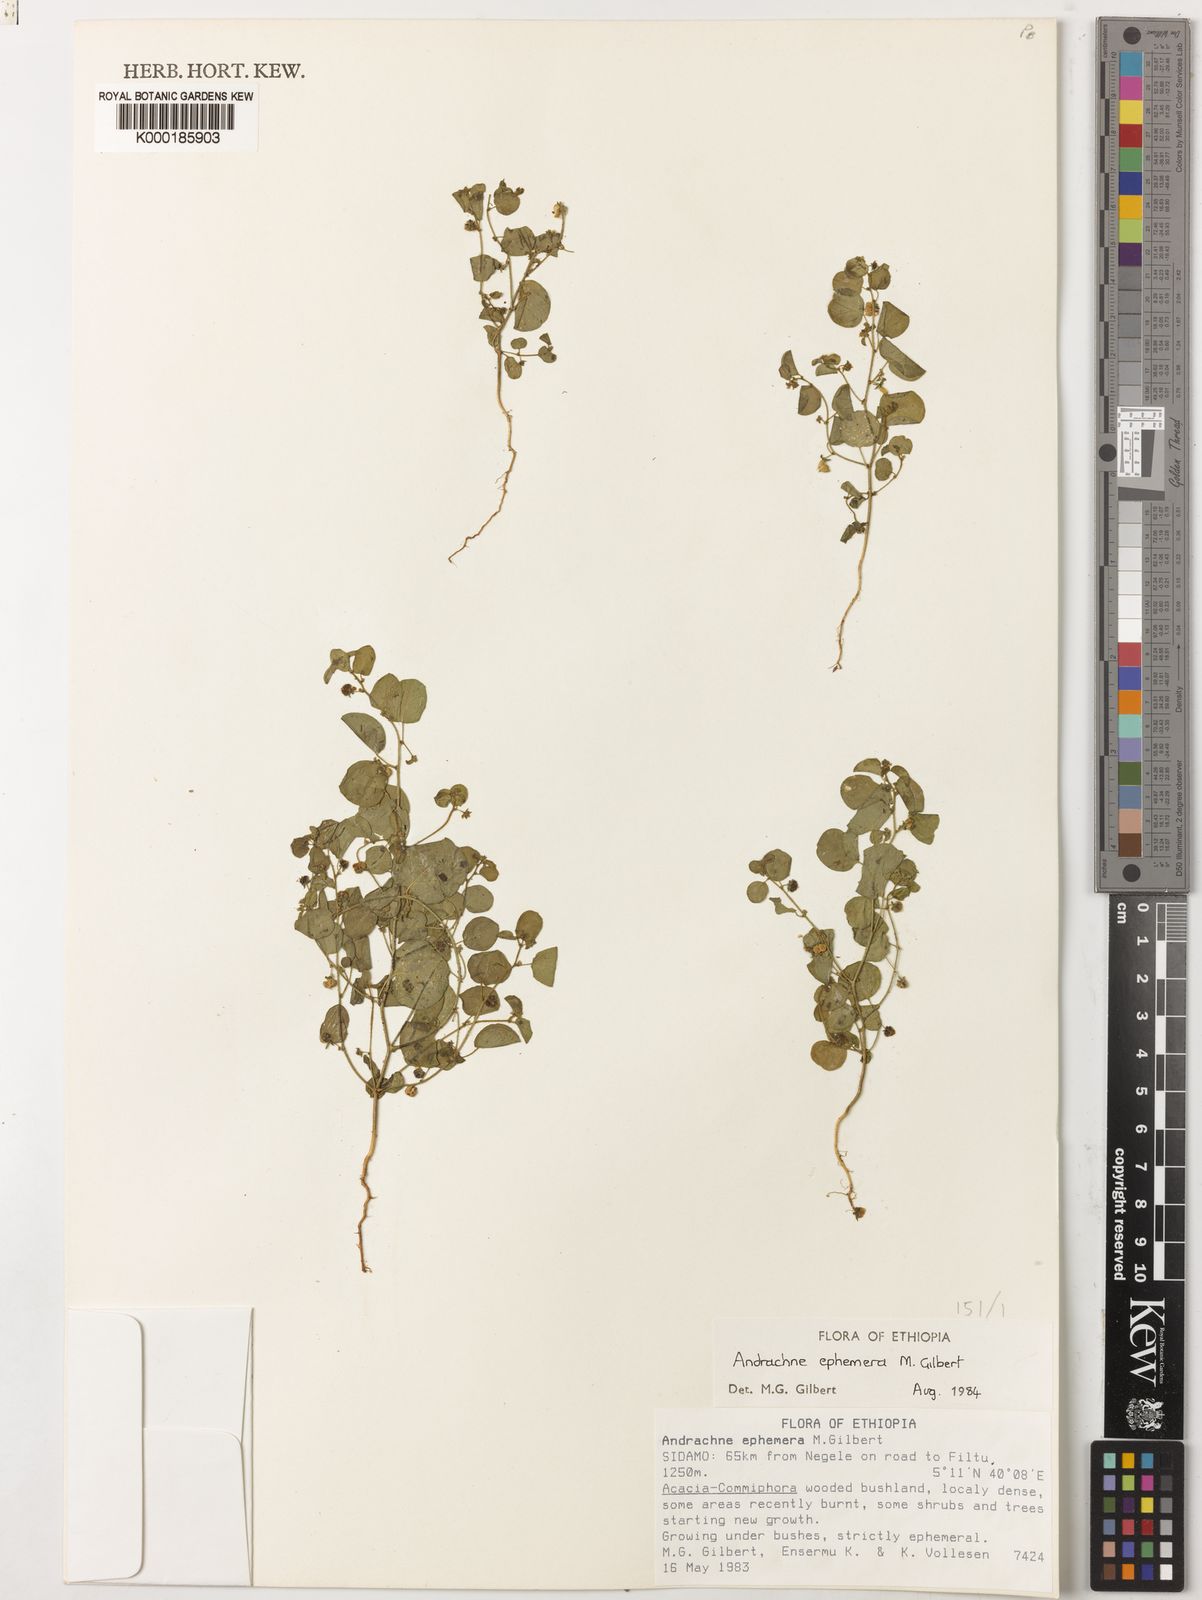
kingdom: Plantae
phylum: Tracheophyta
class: Magnoliopsida
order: Malpighiales
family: Phyllanthaceae
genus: Andrachne
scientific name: Andrachne ephemera
